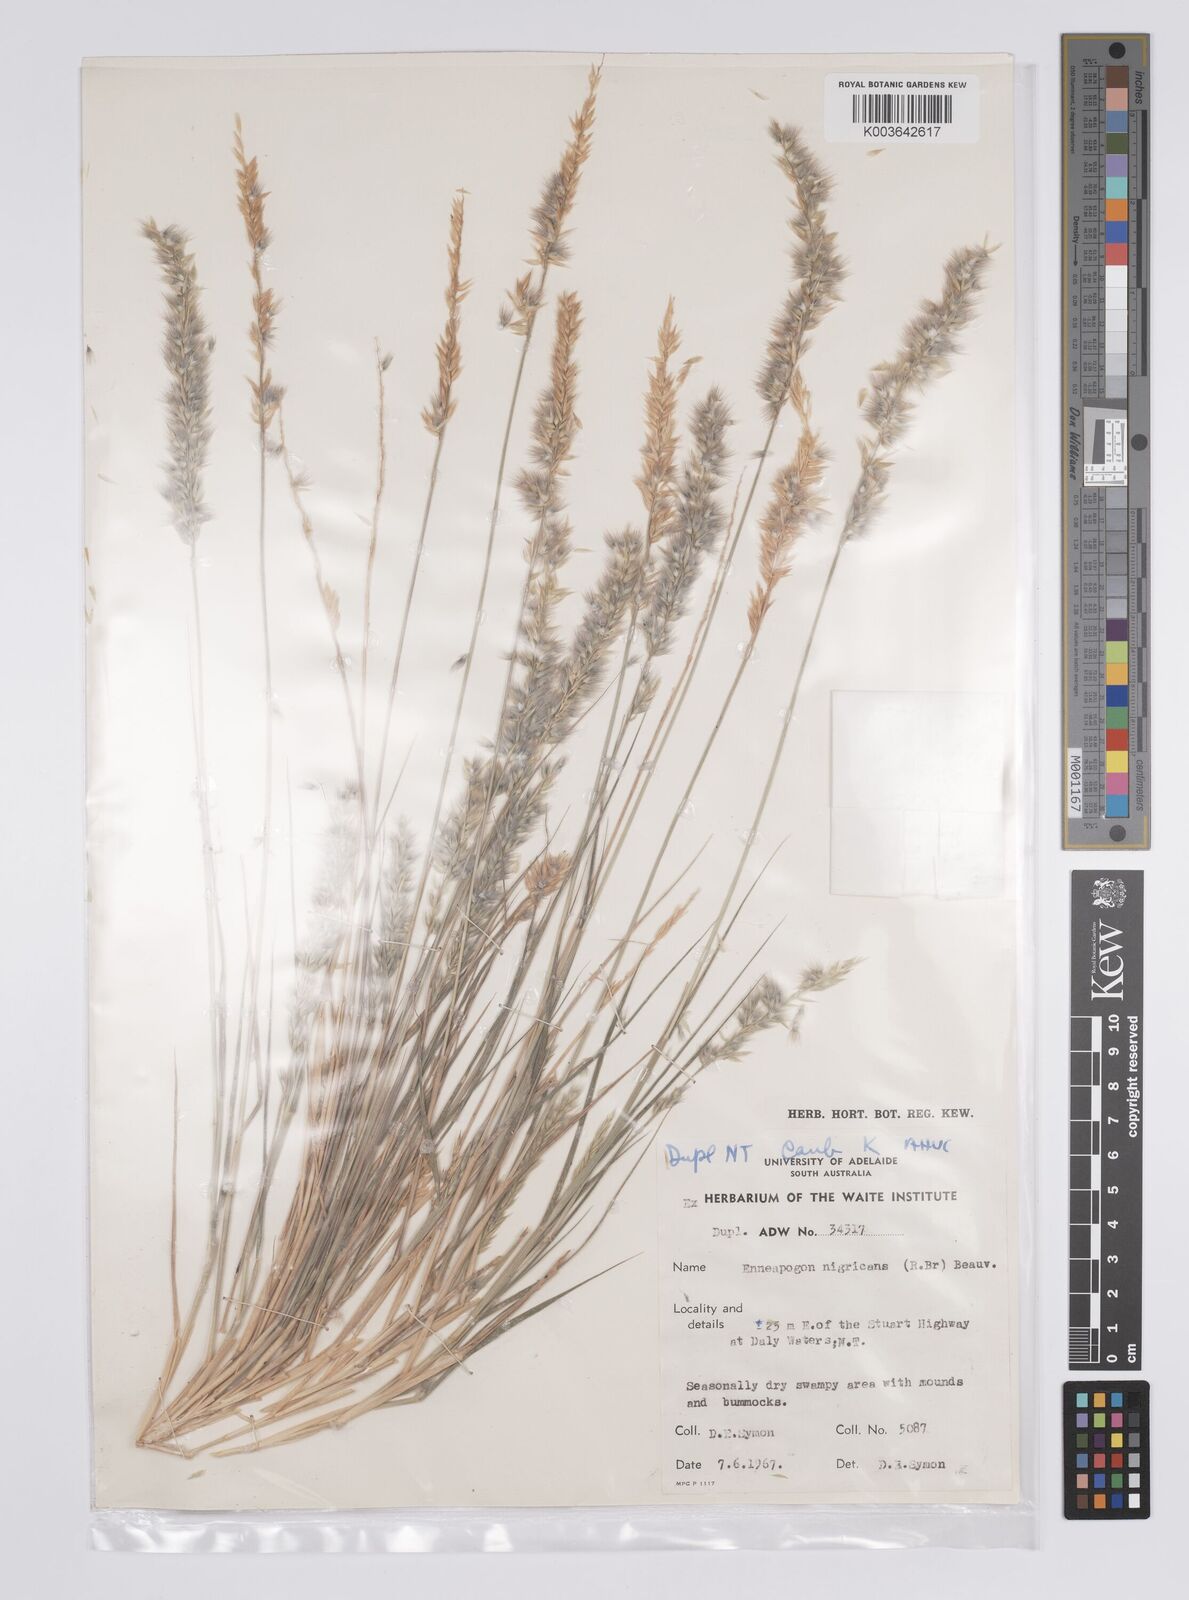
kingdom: Plantae
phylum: Tracheophyta
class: Liliopsida
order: Poales
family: Poaceae
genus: Enneapogon
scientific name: Enneapogon nigricans
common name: Pappus grass
